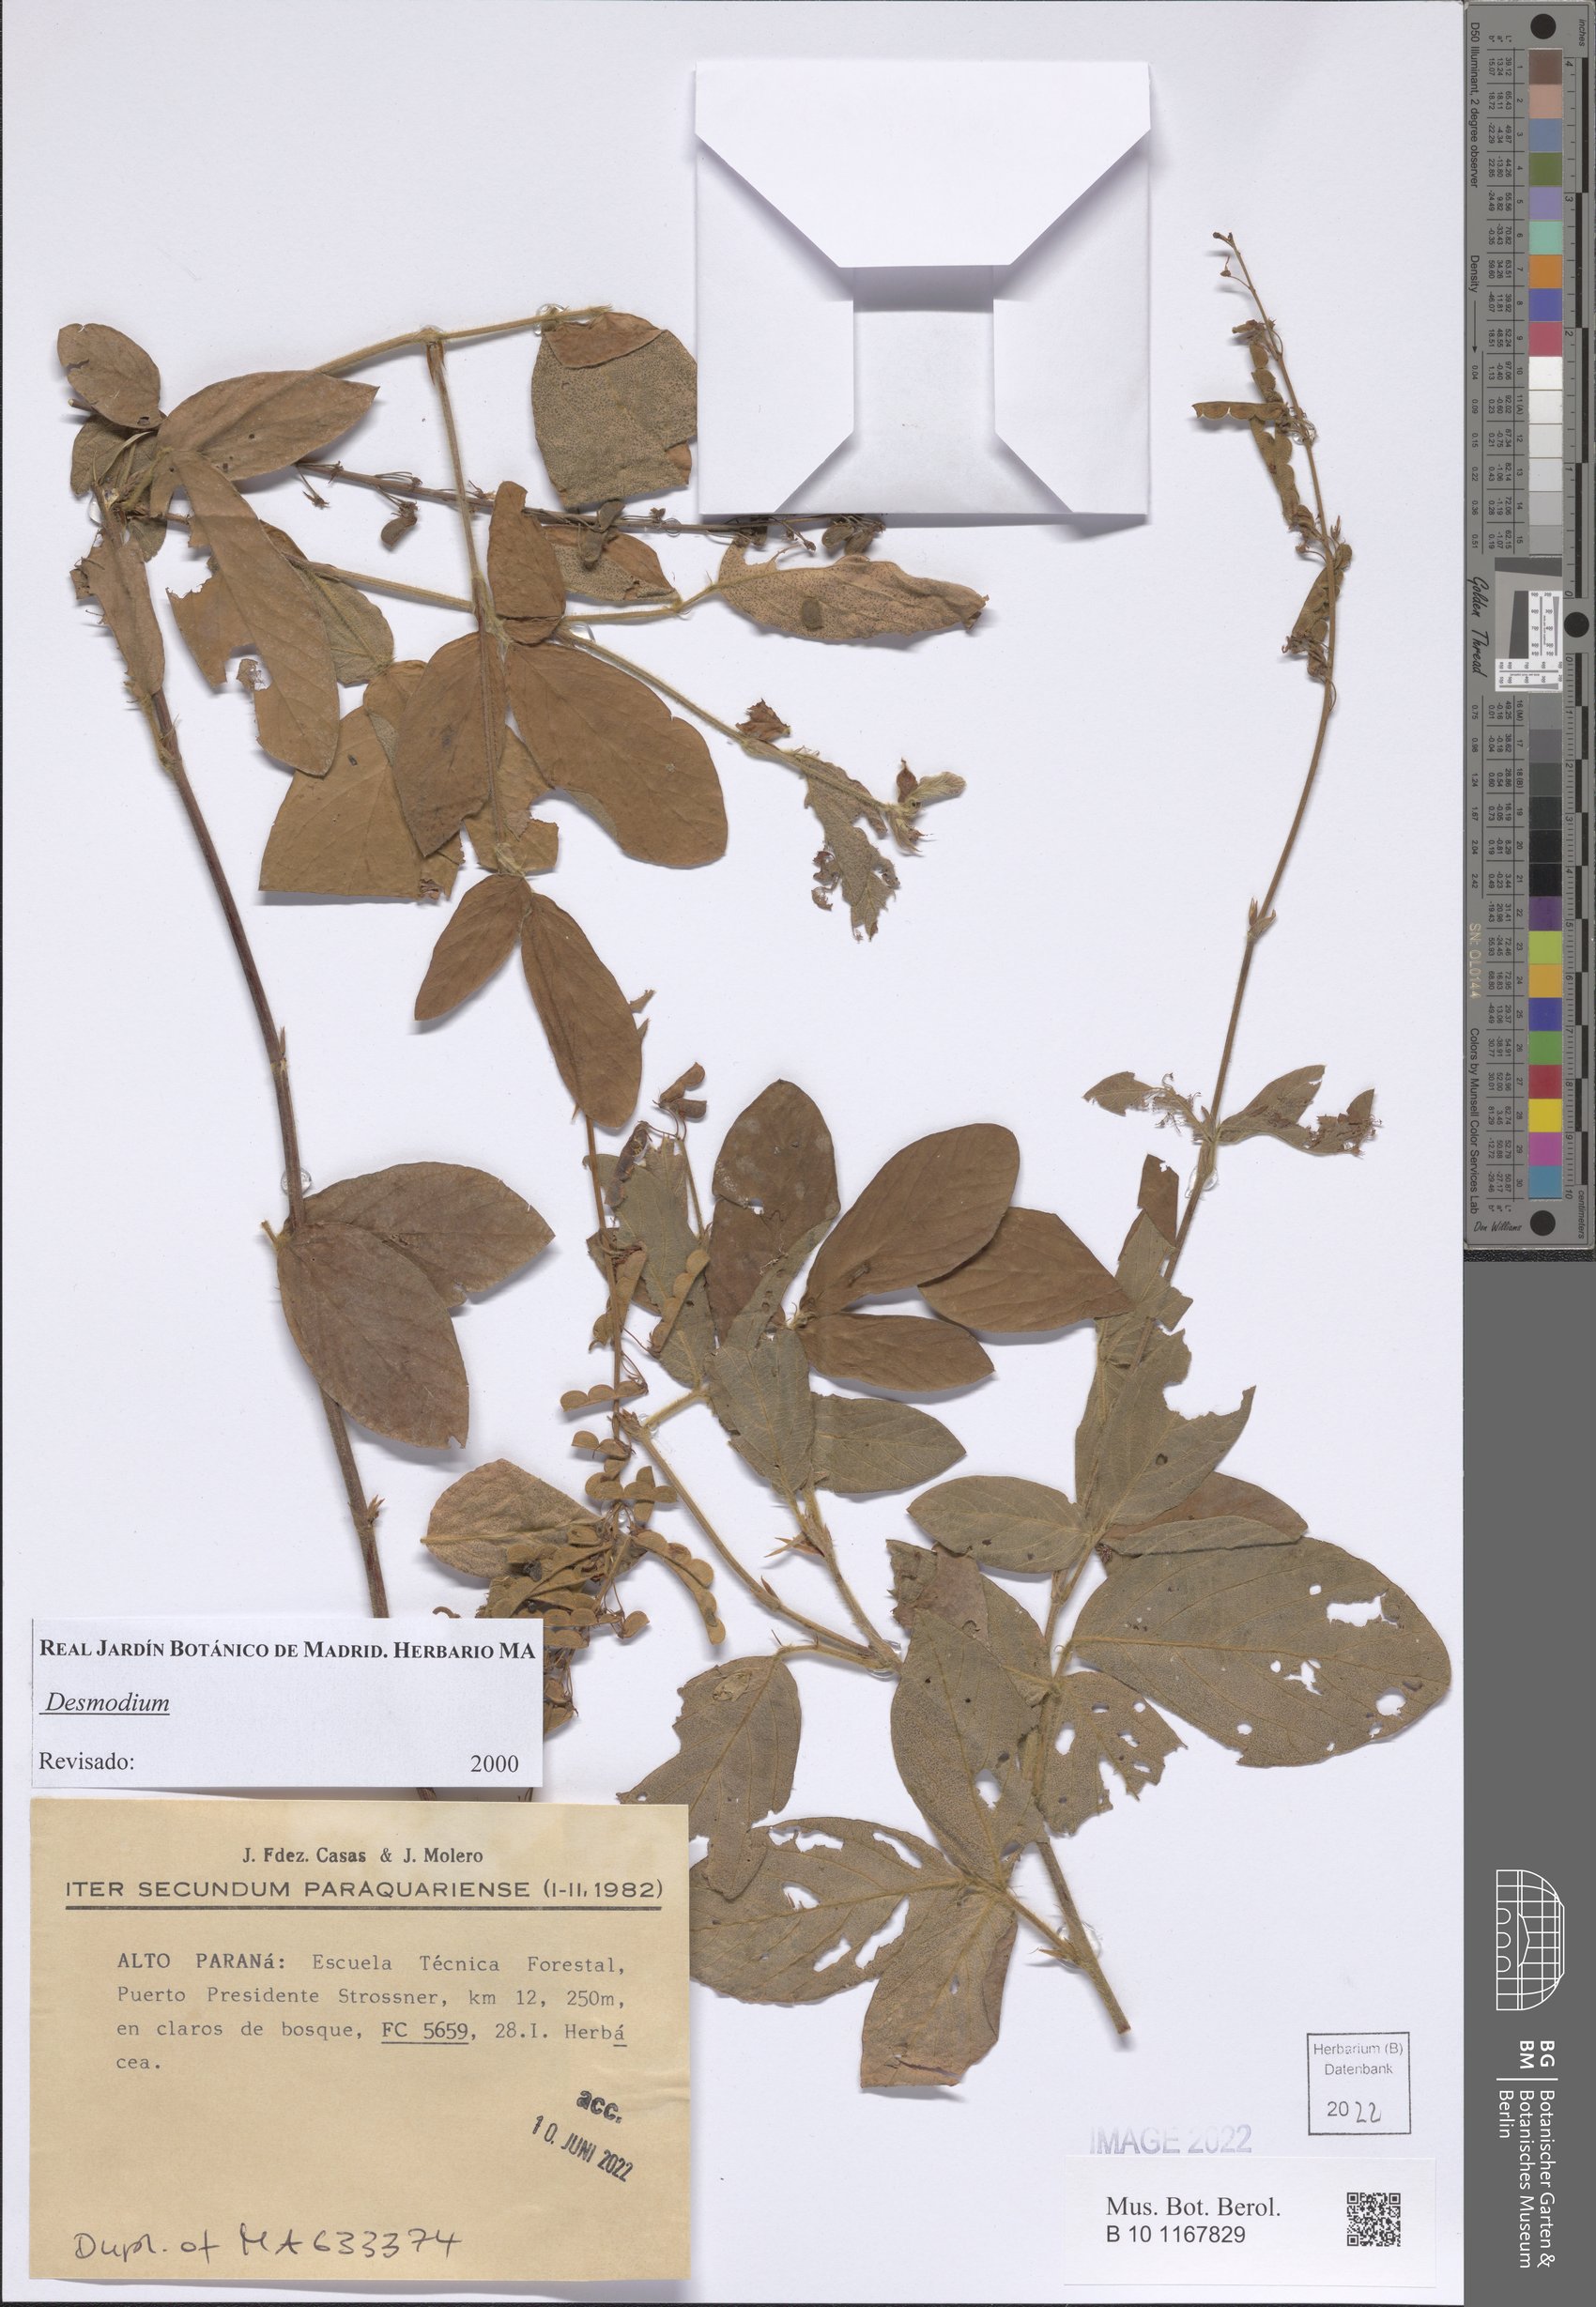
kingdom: Plantae
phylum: Tracheophyta
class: Magnoliopsida
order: Fabales
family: Fabaceae
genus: Desmodium
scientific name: Desmodium
